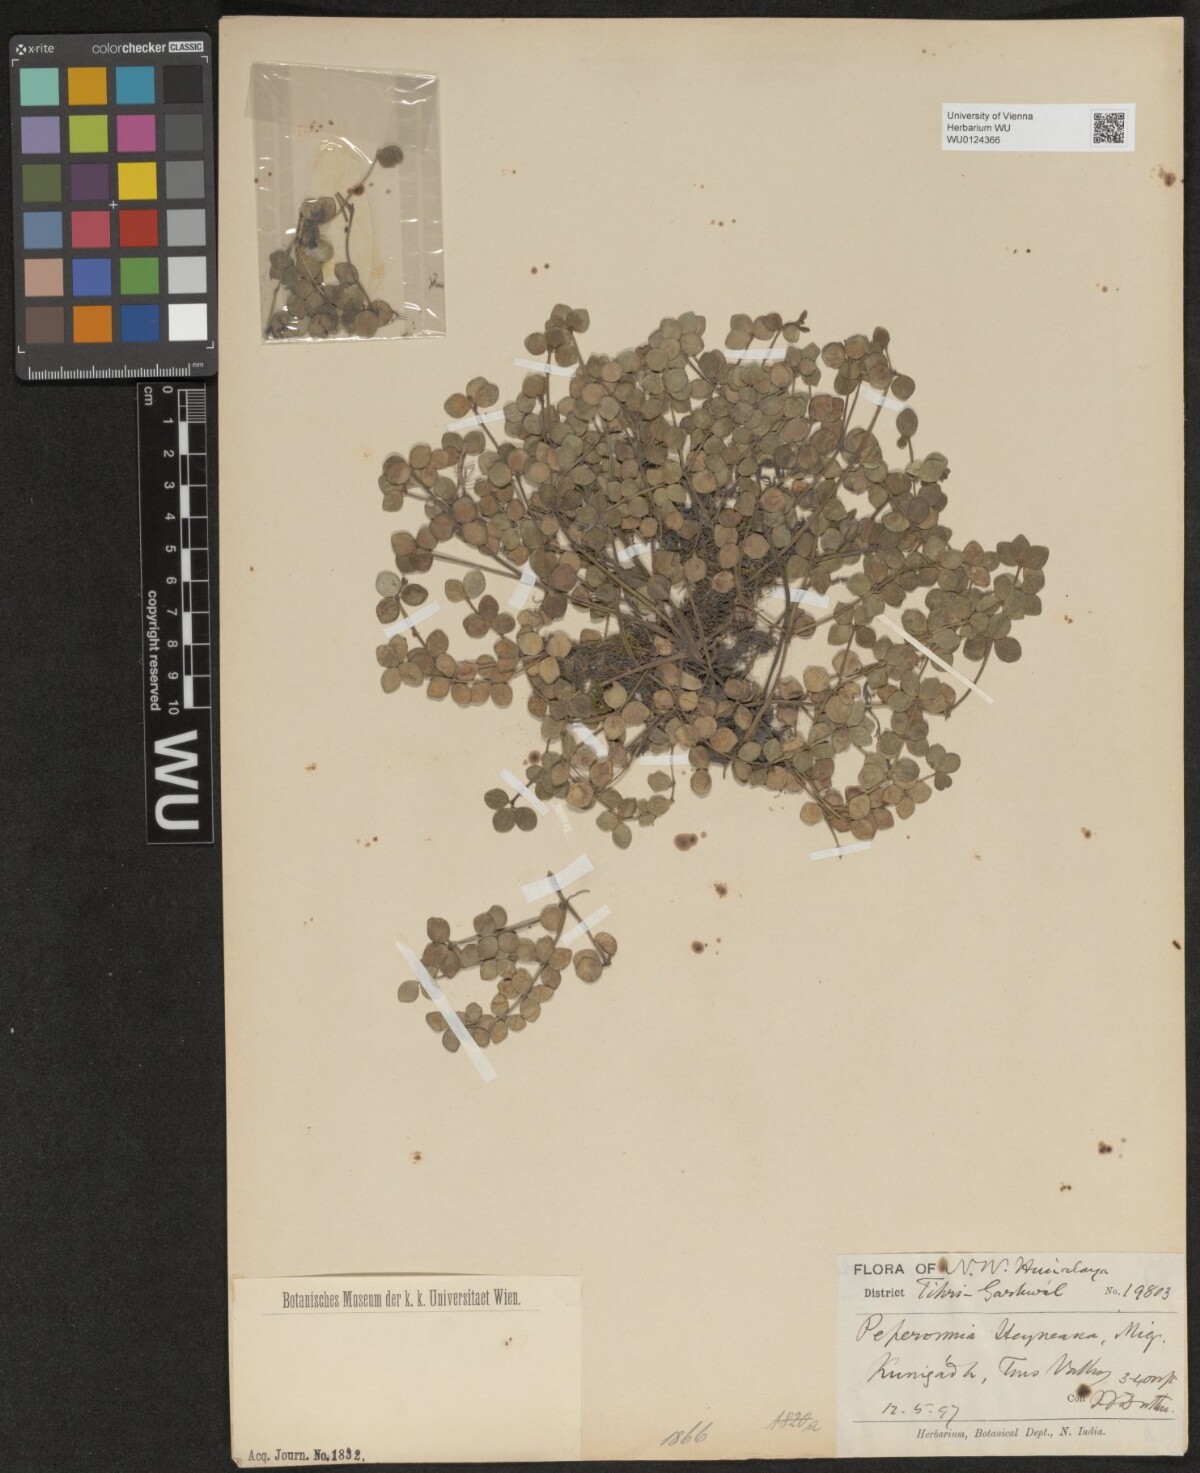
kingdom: Plantae
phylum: Tracheophyta
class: Magnoliopsida
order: Piperales
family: Piperaceae
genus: Peperomia
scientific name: Peperomia heyneana
